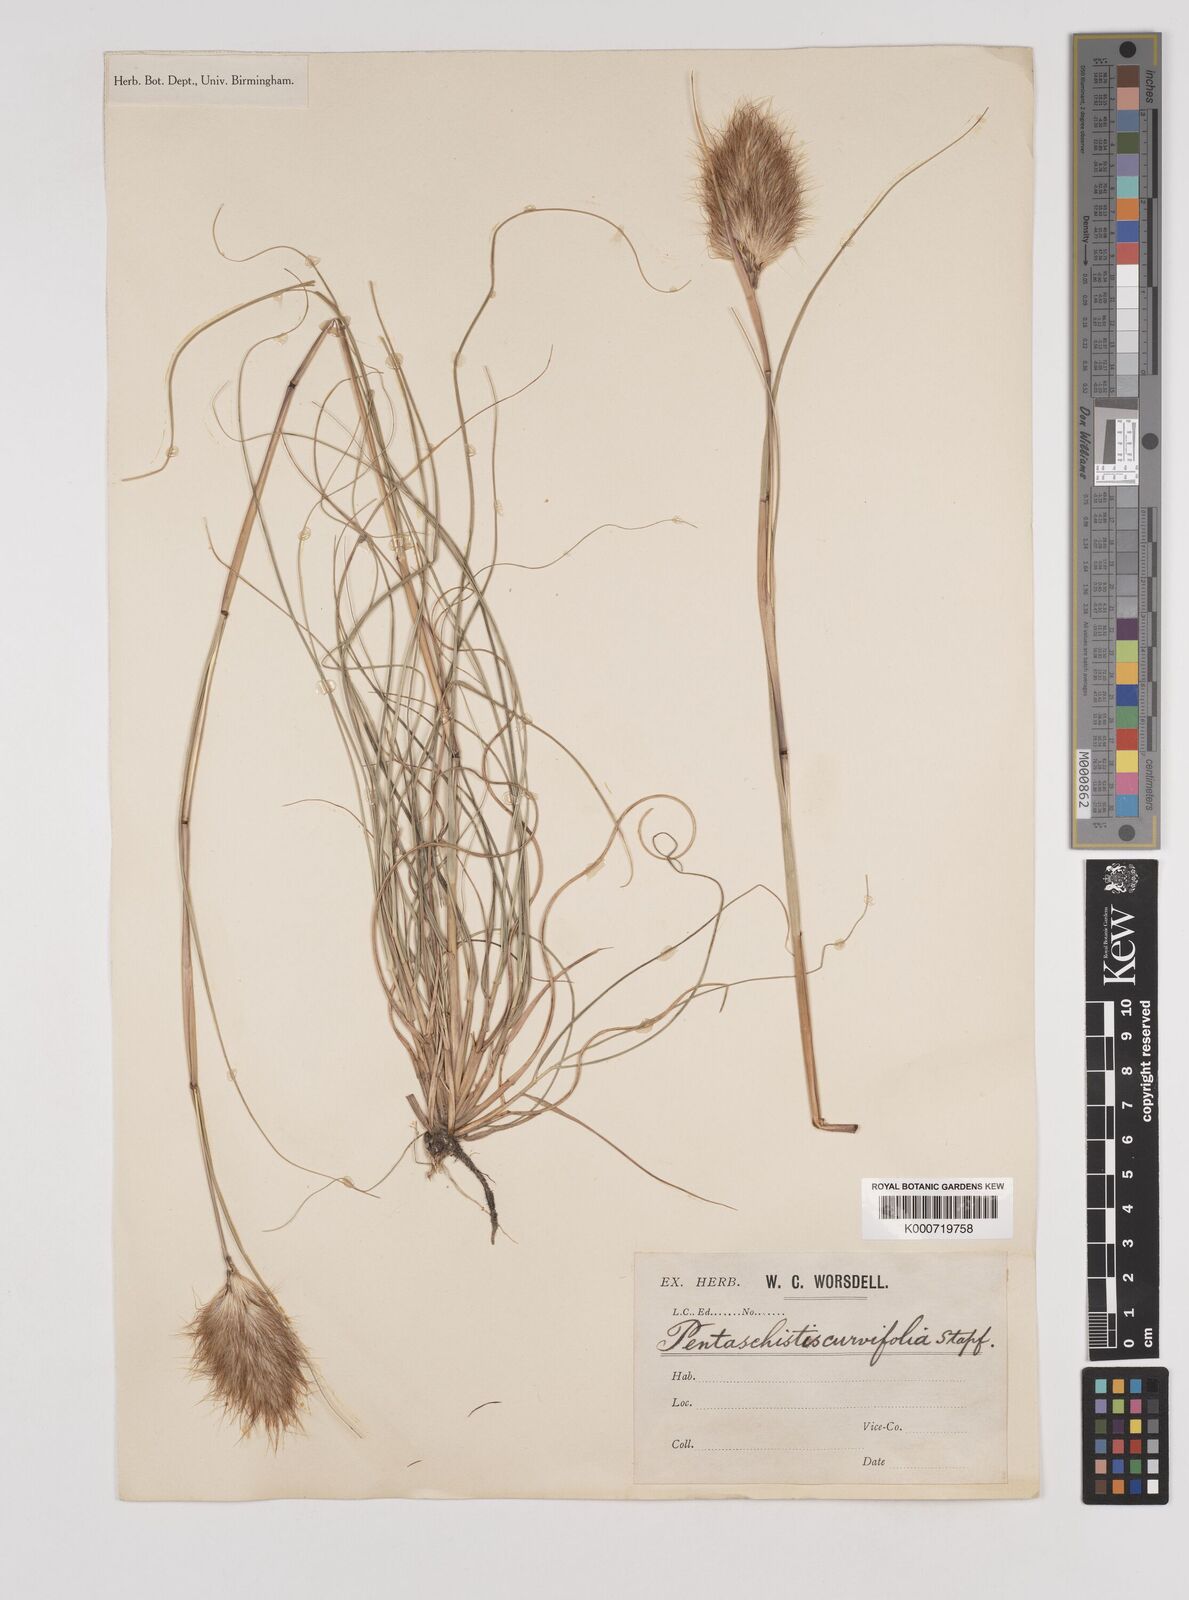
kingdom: Plantae
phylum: Tracheophyta
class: Liliopsida
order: Poales
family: Poaceae
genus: Pentameris
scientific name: Pentameris curvifolia
